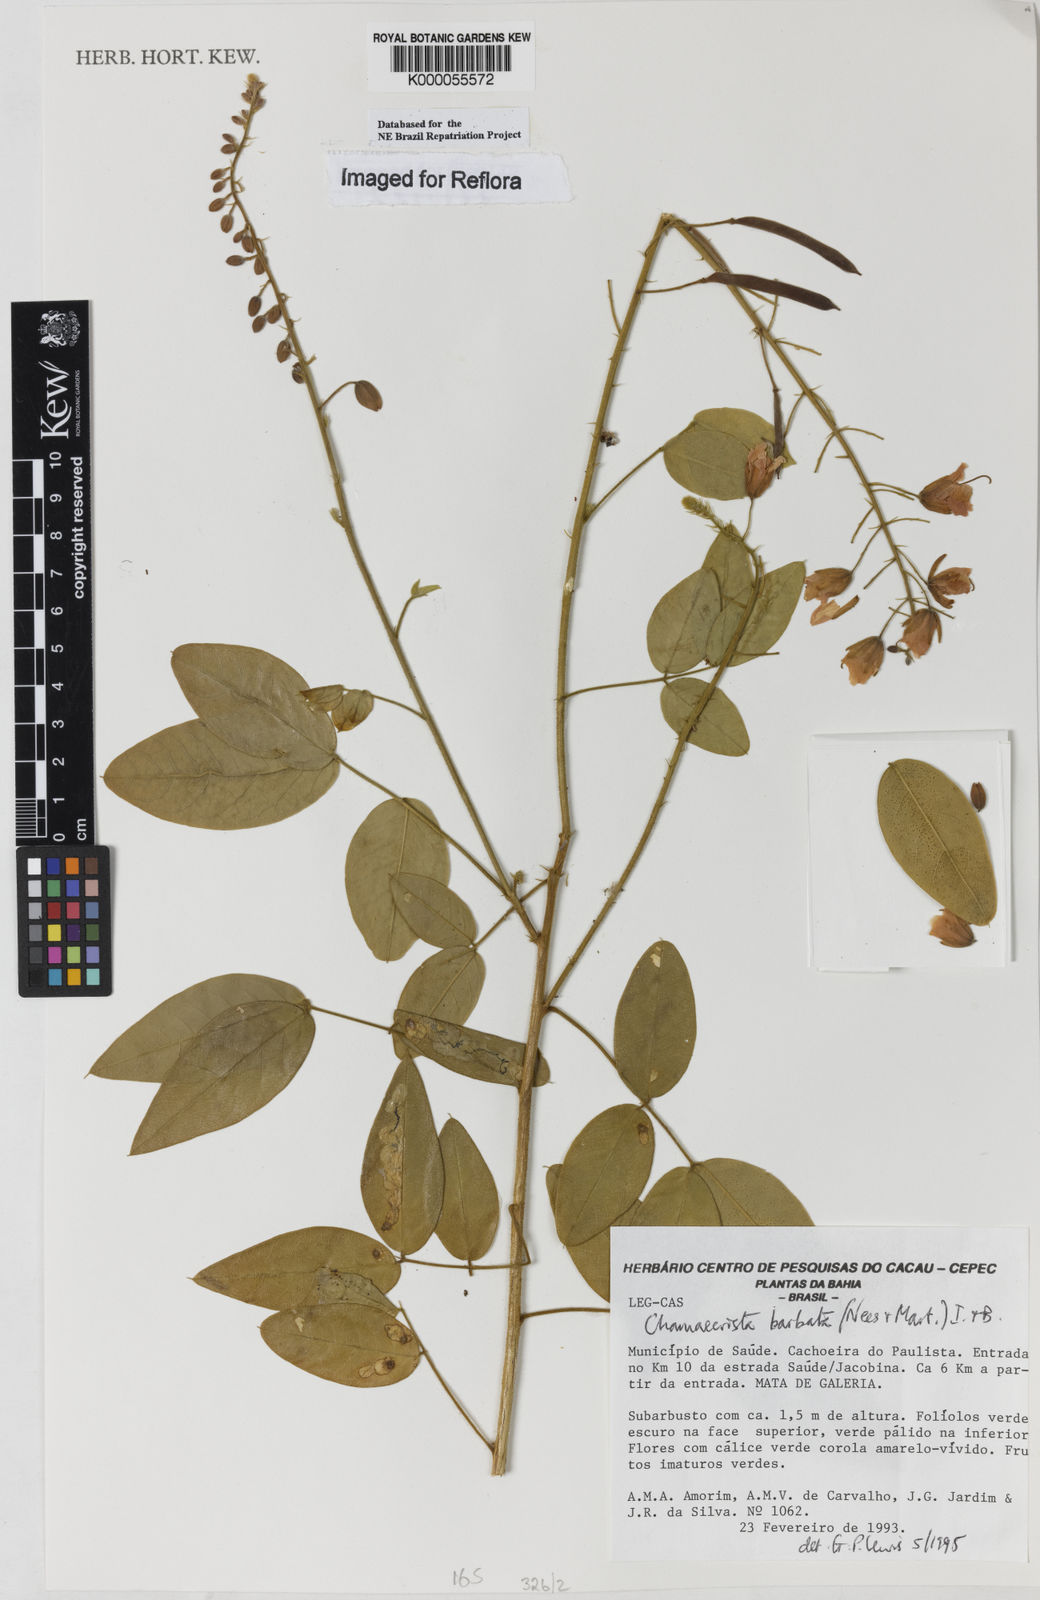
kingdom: Plantae
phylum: Tracheophyta
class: Magnoliopsida
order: Fabales
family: Fabaceae
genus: Chamaecrista
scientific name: Chamaecrista barbata
